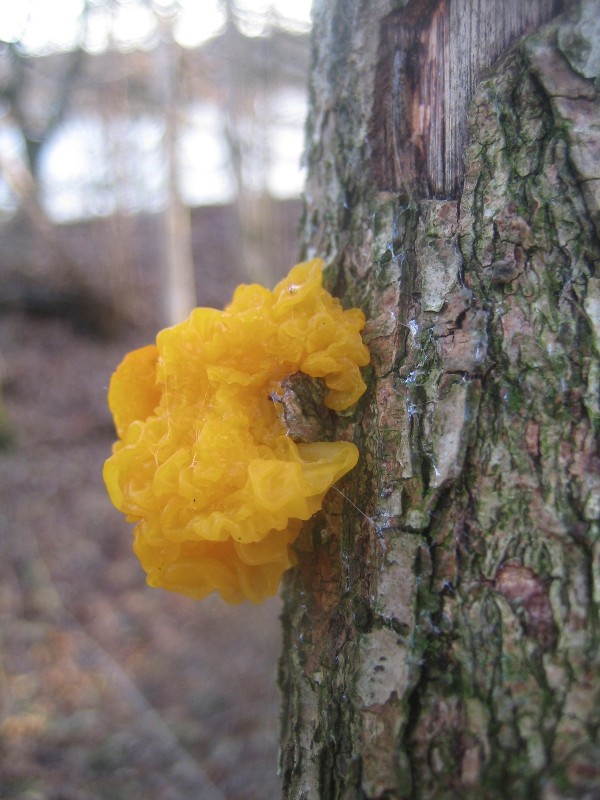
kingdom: Fungi
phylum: Basidiomycota
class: Tremellomycetes
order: Tremellales
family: Tremellaceae
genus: Tremella
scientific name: Tremella mesenterica
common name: gul bævresvamp
